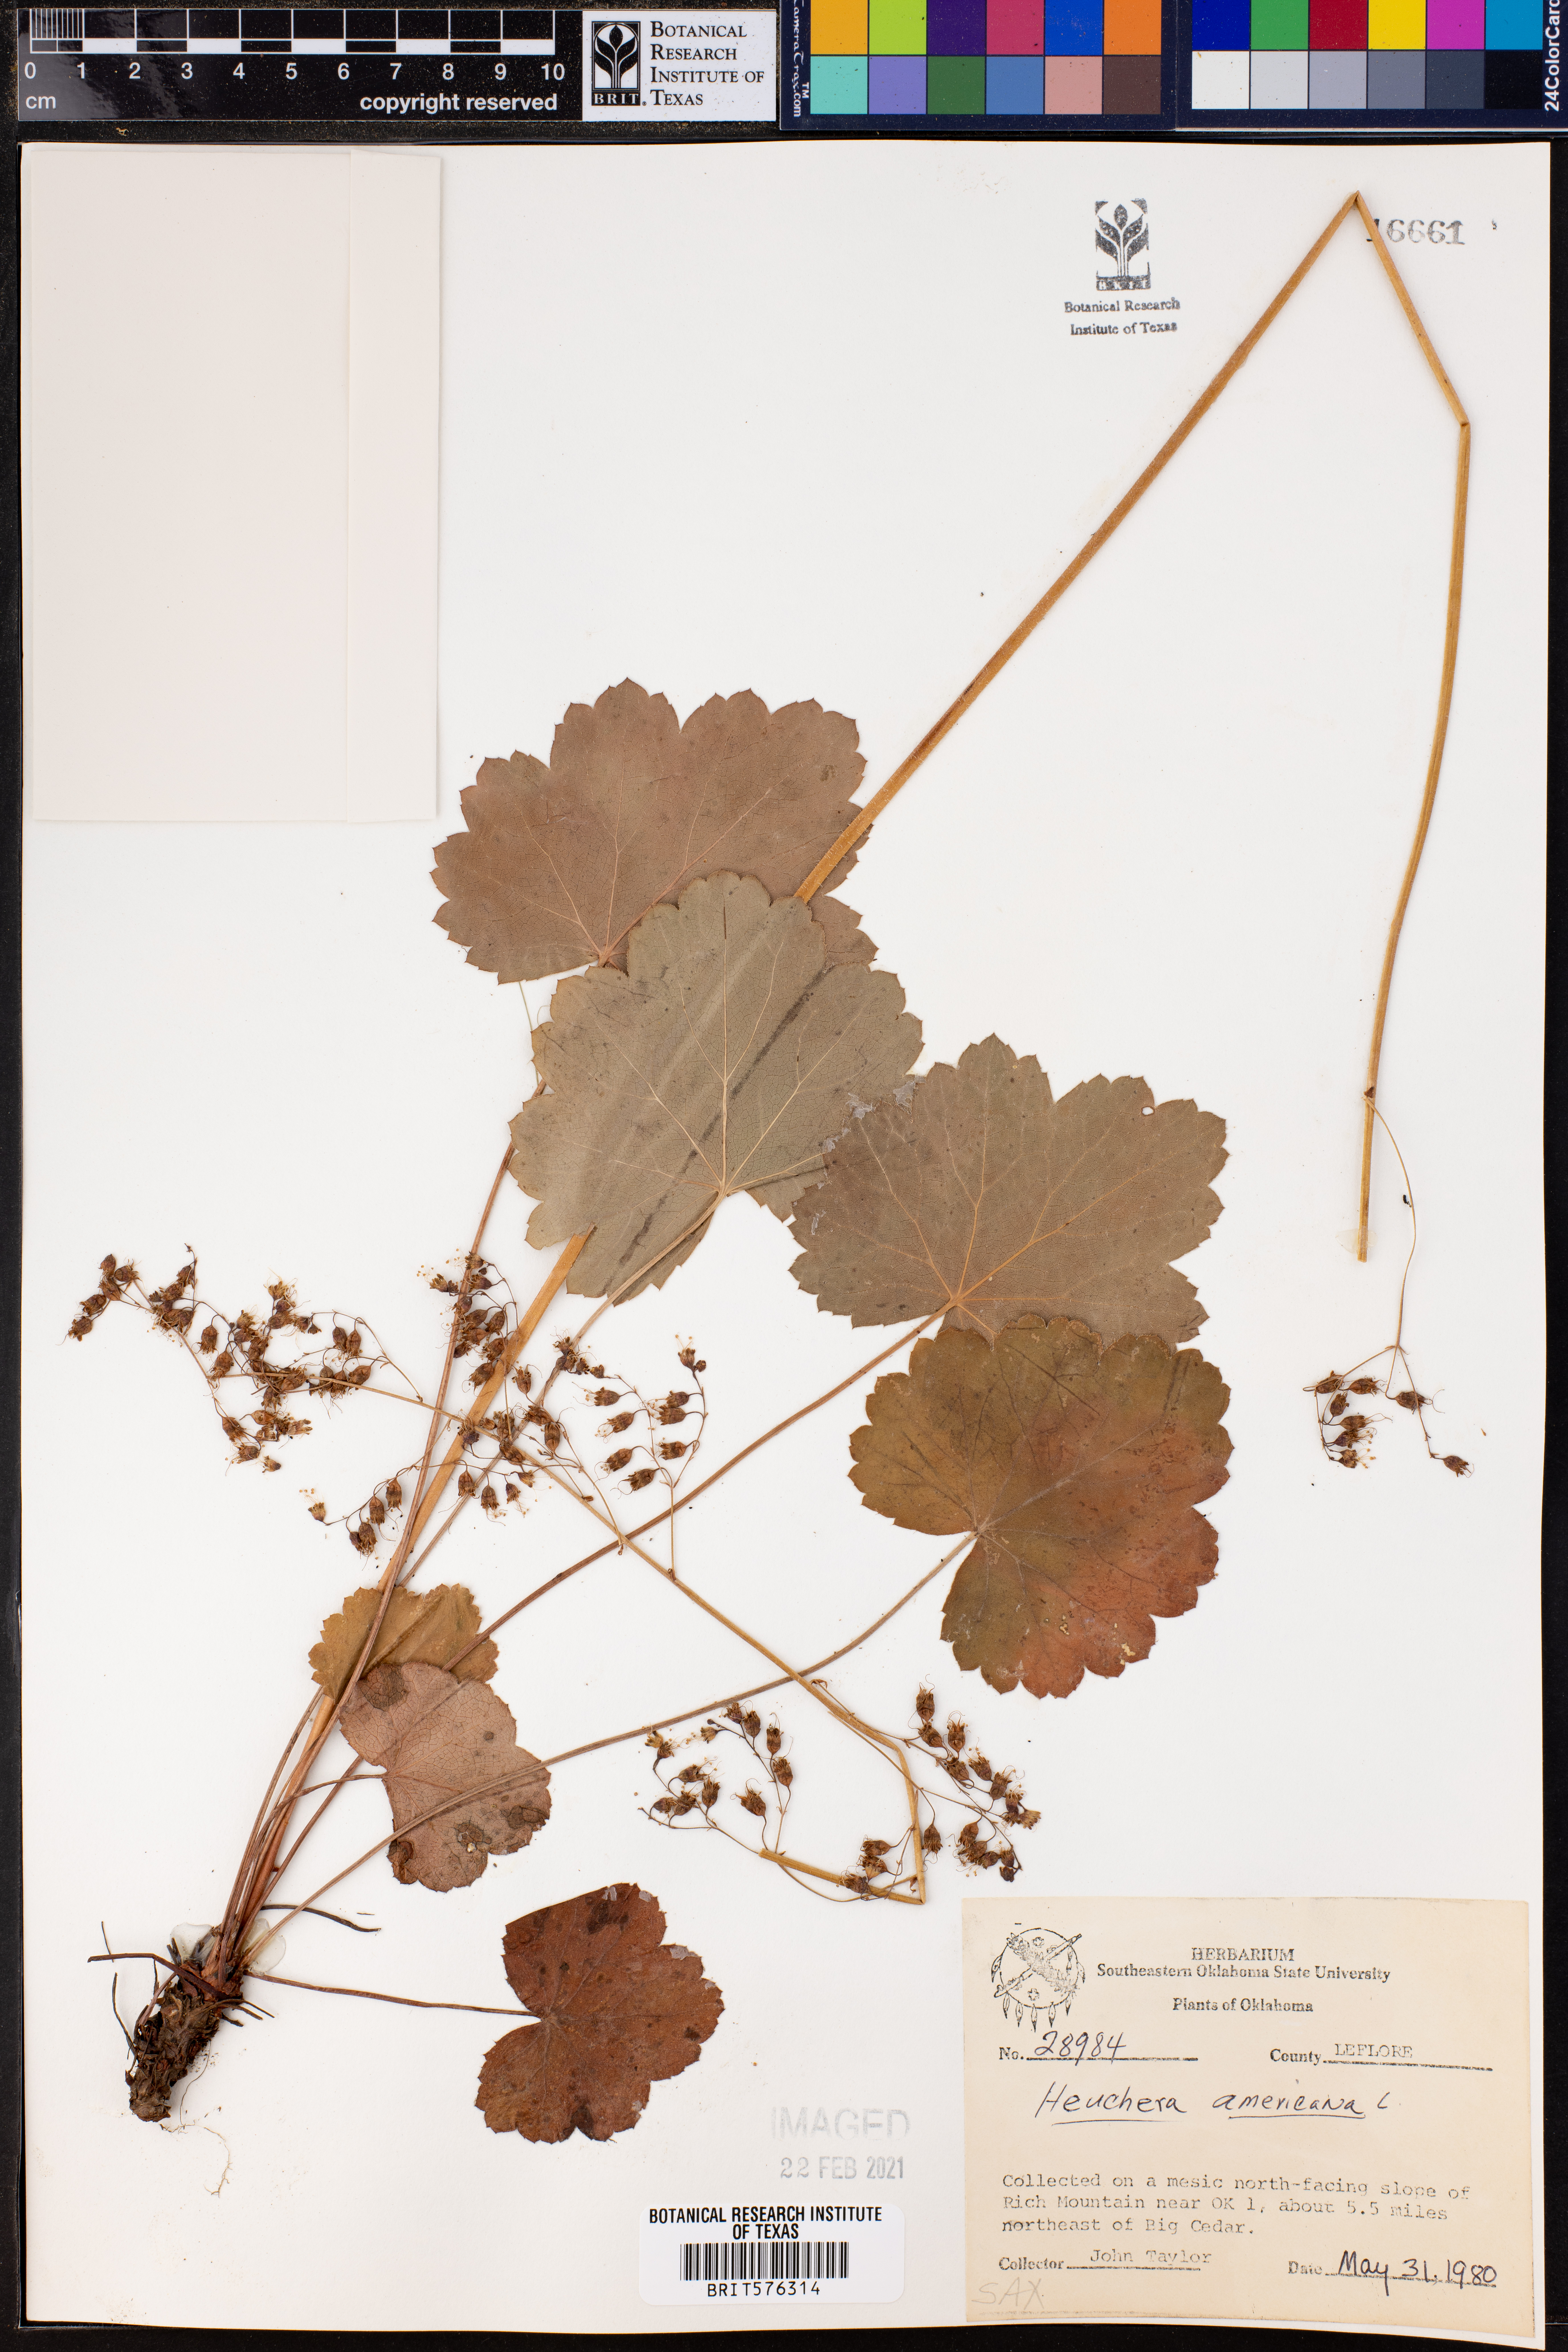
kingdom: Plantae
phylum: Tracheophyta
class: Magnoliopsida
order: Saxifragales
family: Saxifragaceae
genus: Heuchera
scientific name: Heuchera americana
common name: Alumroot
